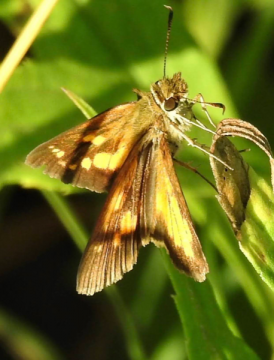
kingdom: Animalia
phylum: Arthropoda
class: Insecta
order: Lepidoptera
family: Hesperiidae
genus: Poanes
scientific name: Poanes viator
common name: Broad-winged Skipper
